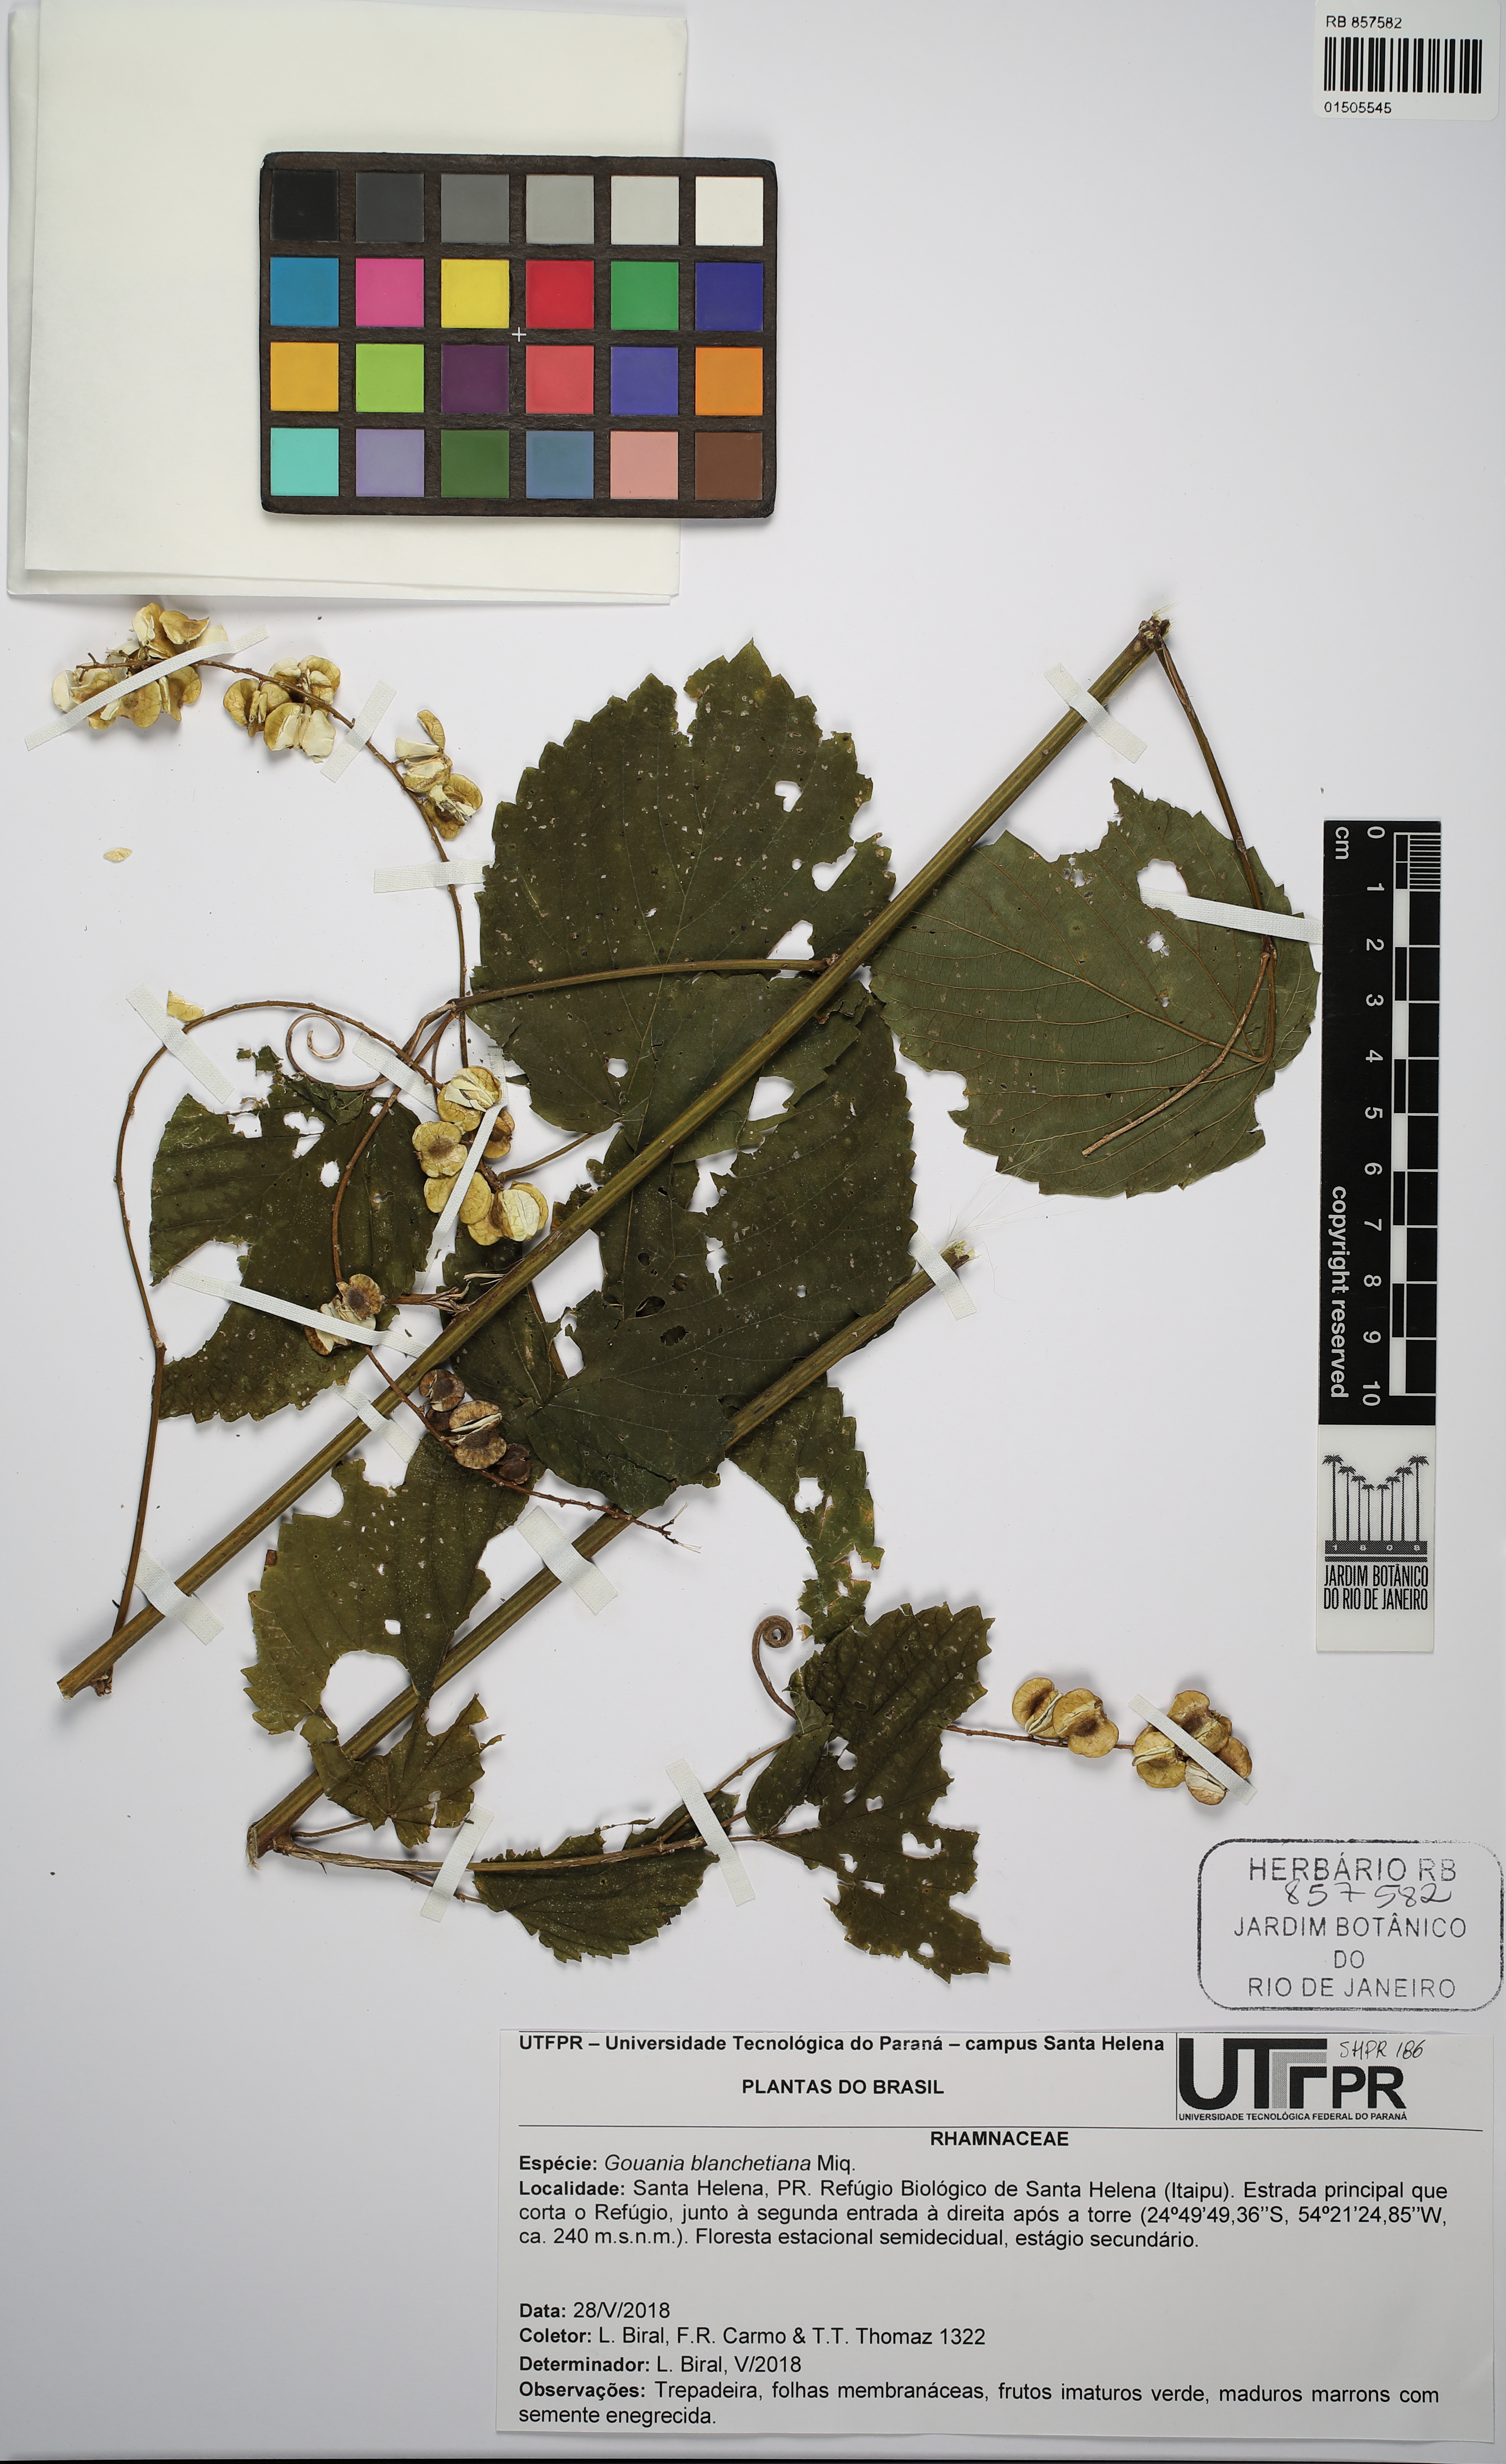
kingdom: Plantae
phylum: Tracheophyta
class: Magnoliopsida
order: Rosales
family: Rhamnaceae
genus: Gouania
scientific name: Gouania blanchetiana
